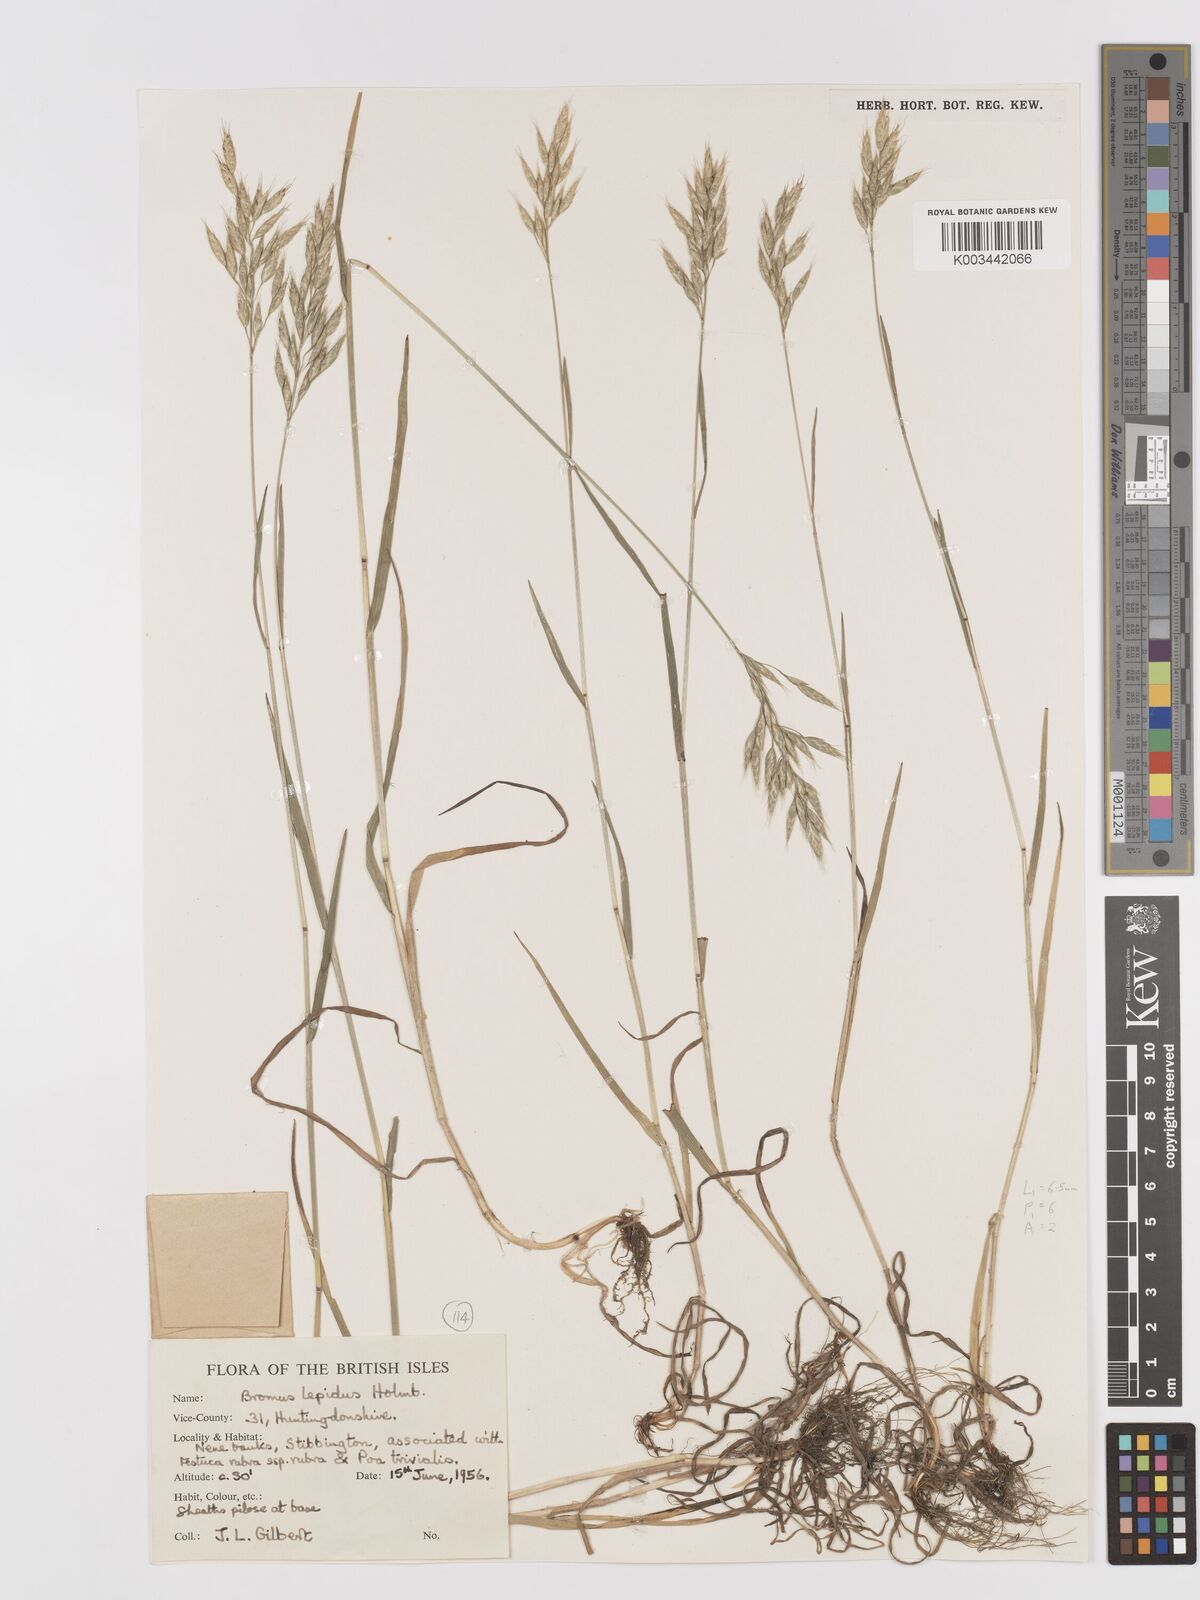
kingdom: Plantae
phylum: Tracheophyta
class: Liliopsida
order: Poales
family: Poaceae
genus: Bromus
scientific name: Bromus lepidus
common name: Slender soft-brome
